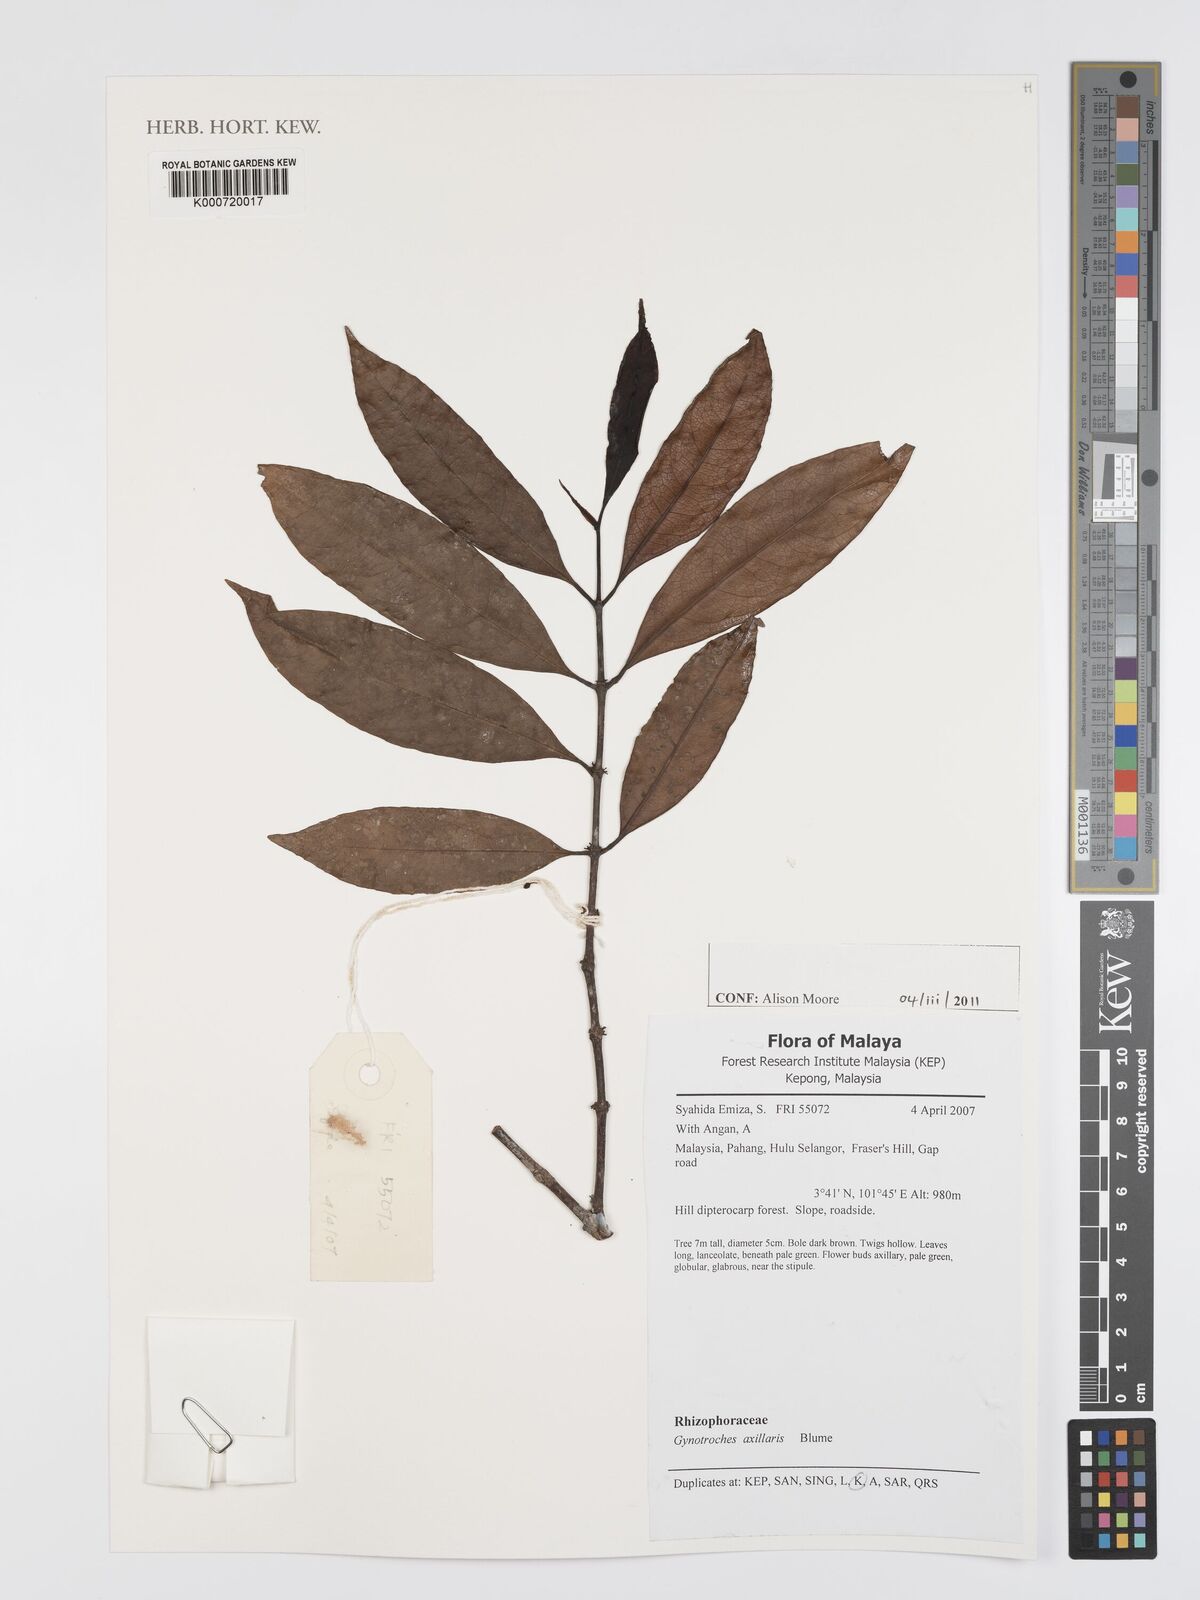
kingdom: Plantae
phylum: Tracheophyta
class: Magnoliopsida
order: Malpighiales
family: Rhizophoraceae
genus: Gynotroches
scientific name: Gynotroches axillaris
